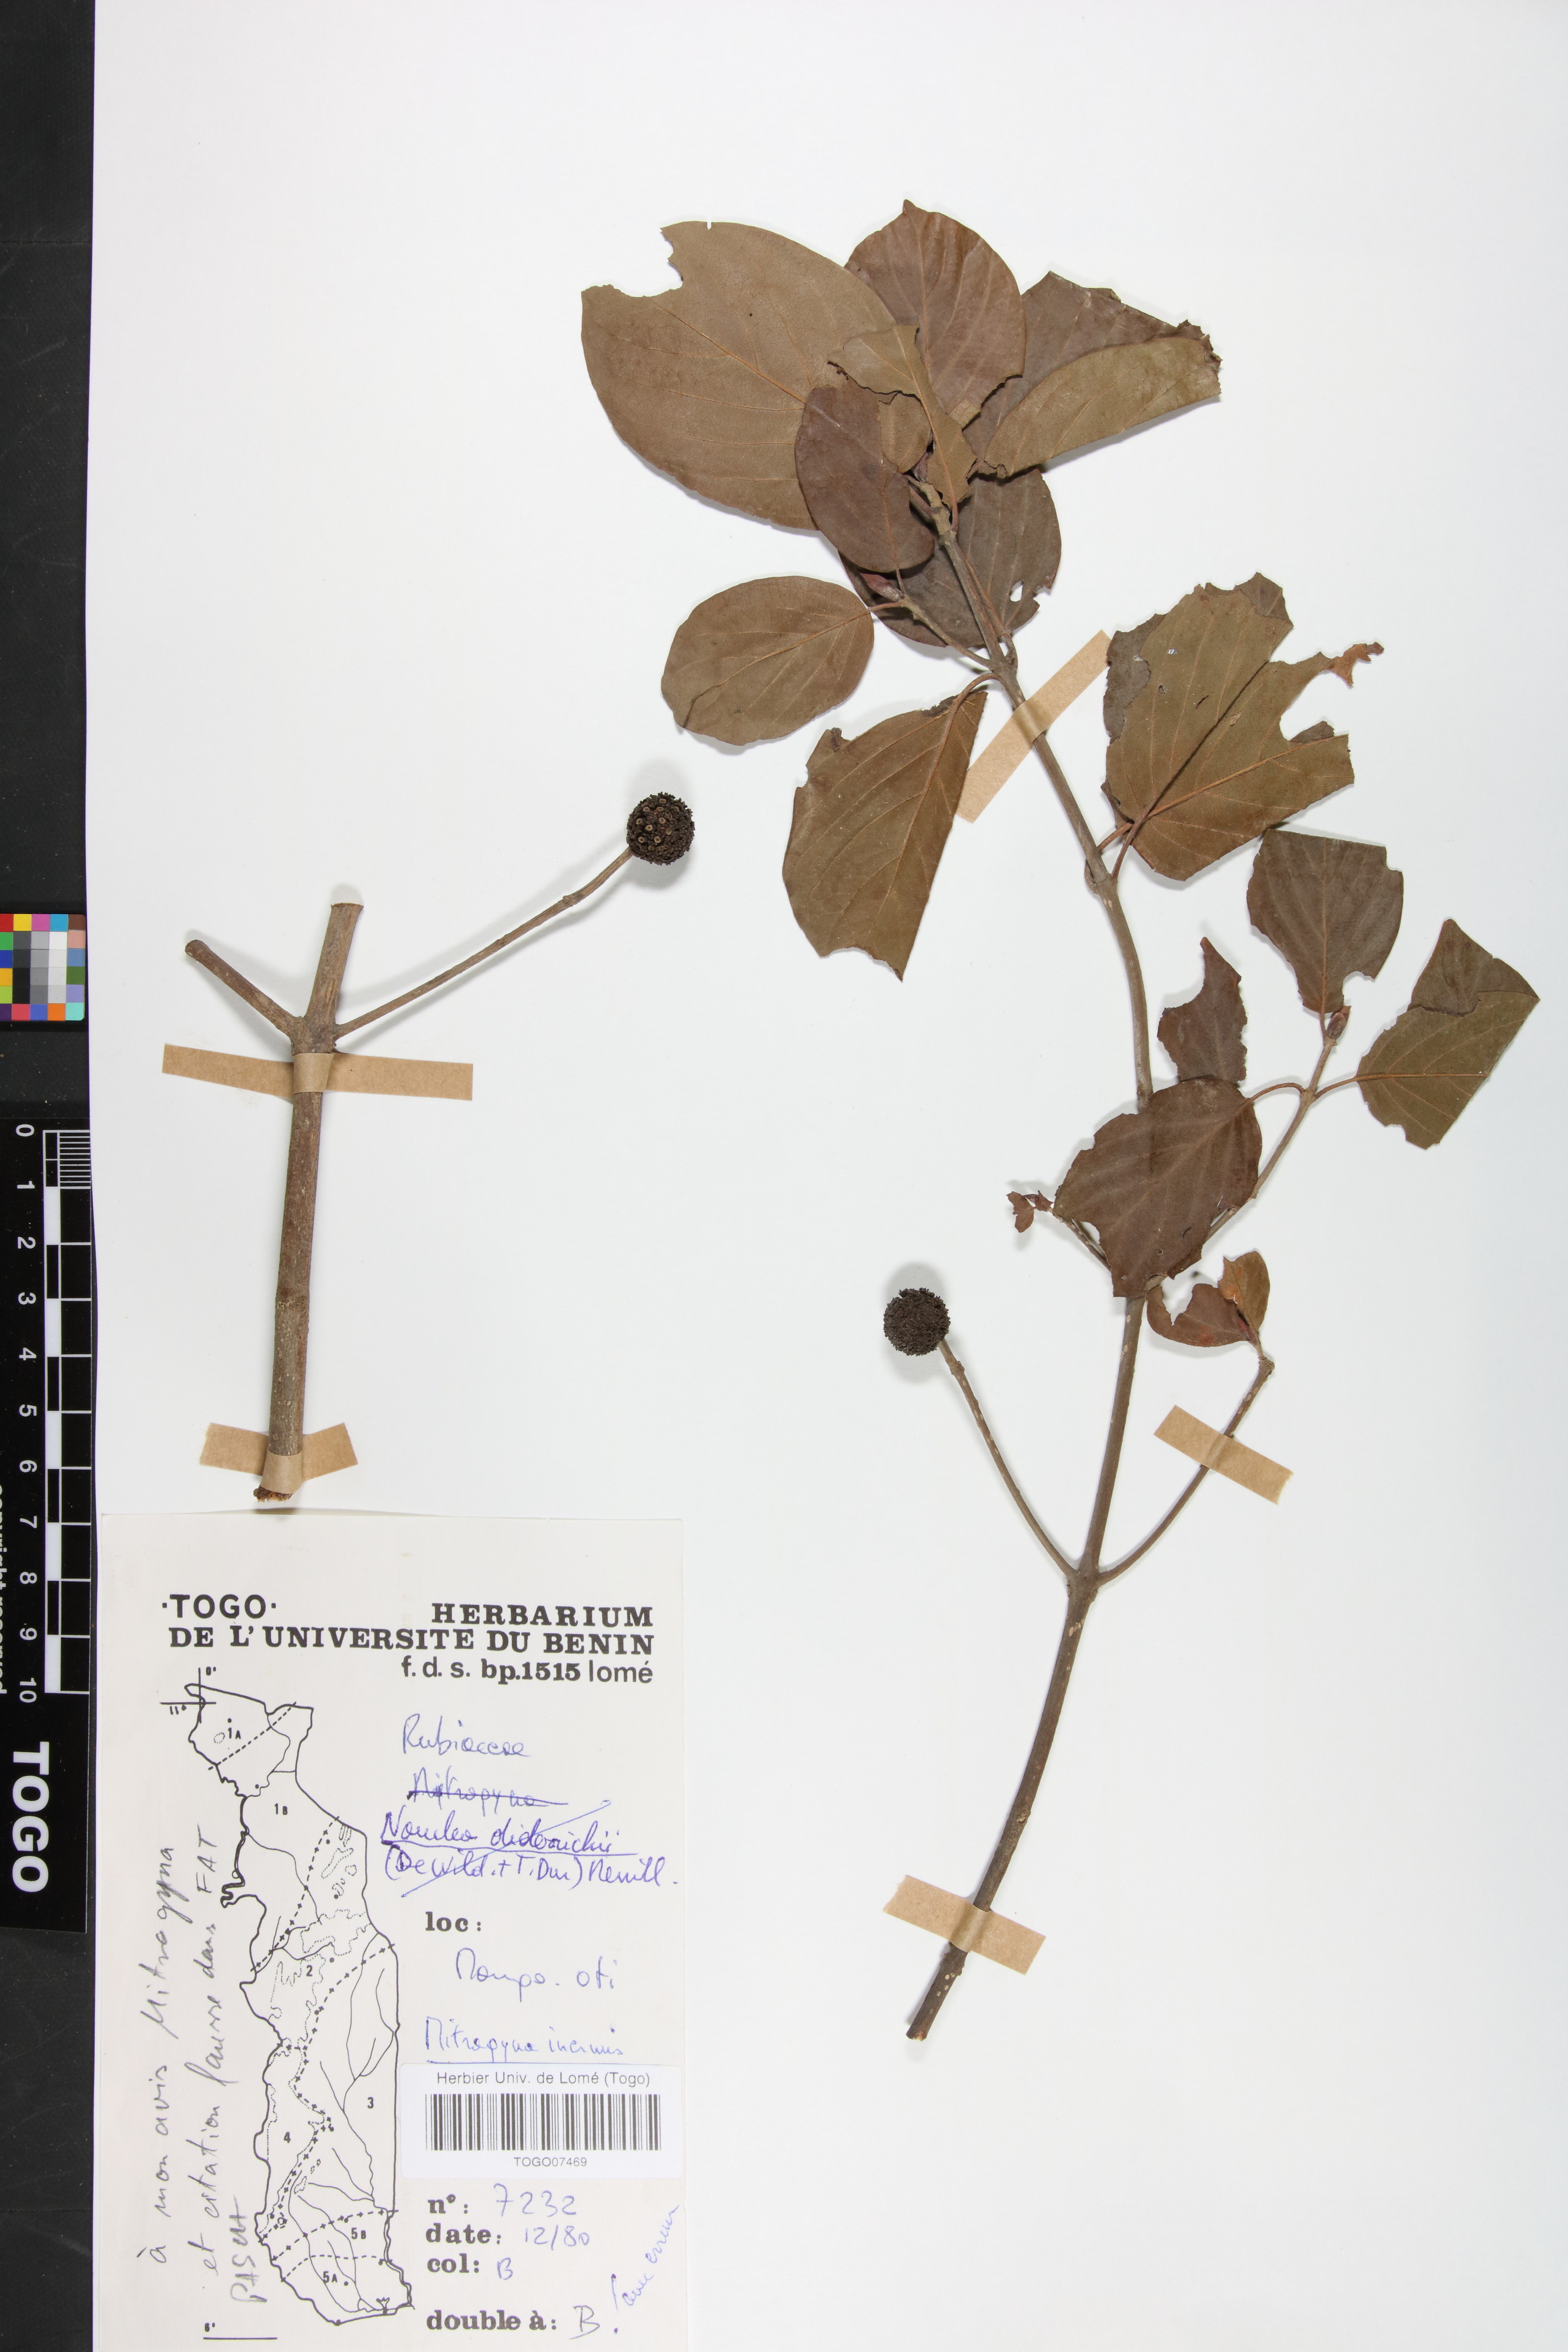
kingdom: Plantae
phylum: Tracheophyta
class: Magnoliopsida
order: Gentianales
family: Rubiaceae
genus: Mitragyna
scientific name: Mitragyna inermis
